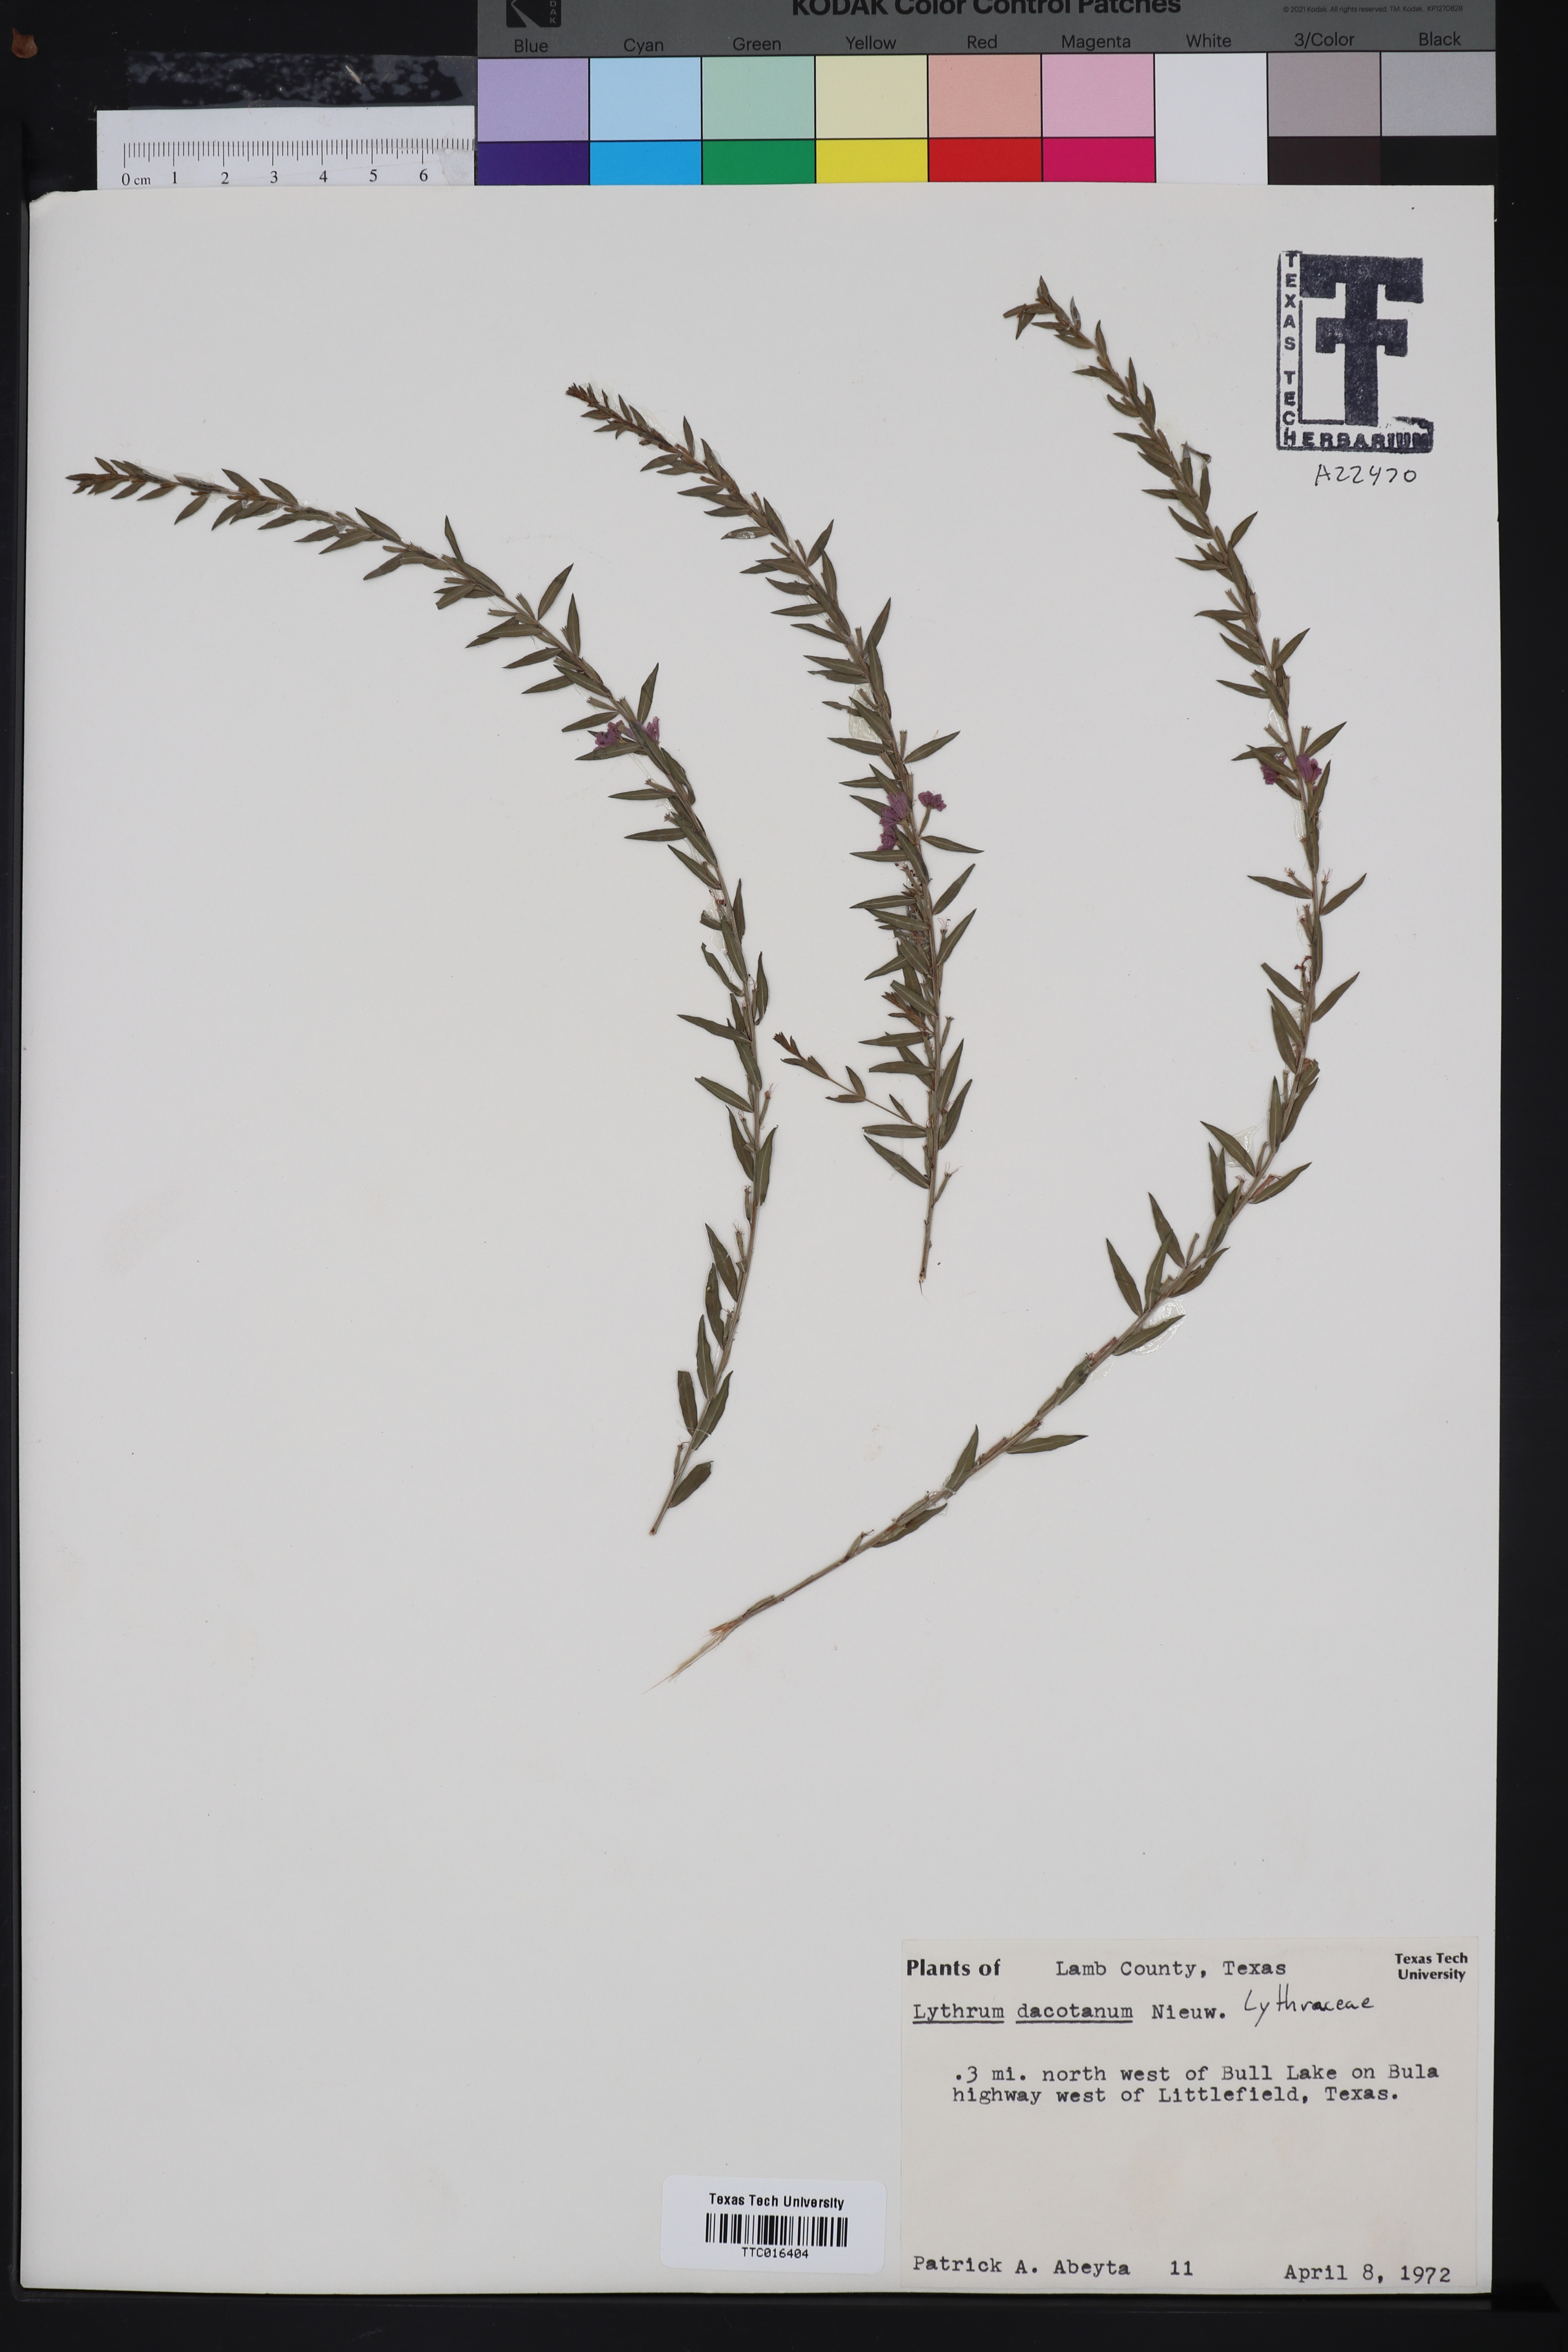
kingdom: Plantae
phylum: Tracheophyta
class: Magnoliopsida
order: Myrtales
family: Lythraceae
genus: Lythrum
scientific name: Lythrum alatum
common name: Winged loosestrife
